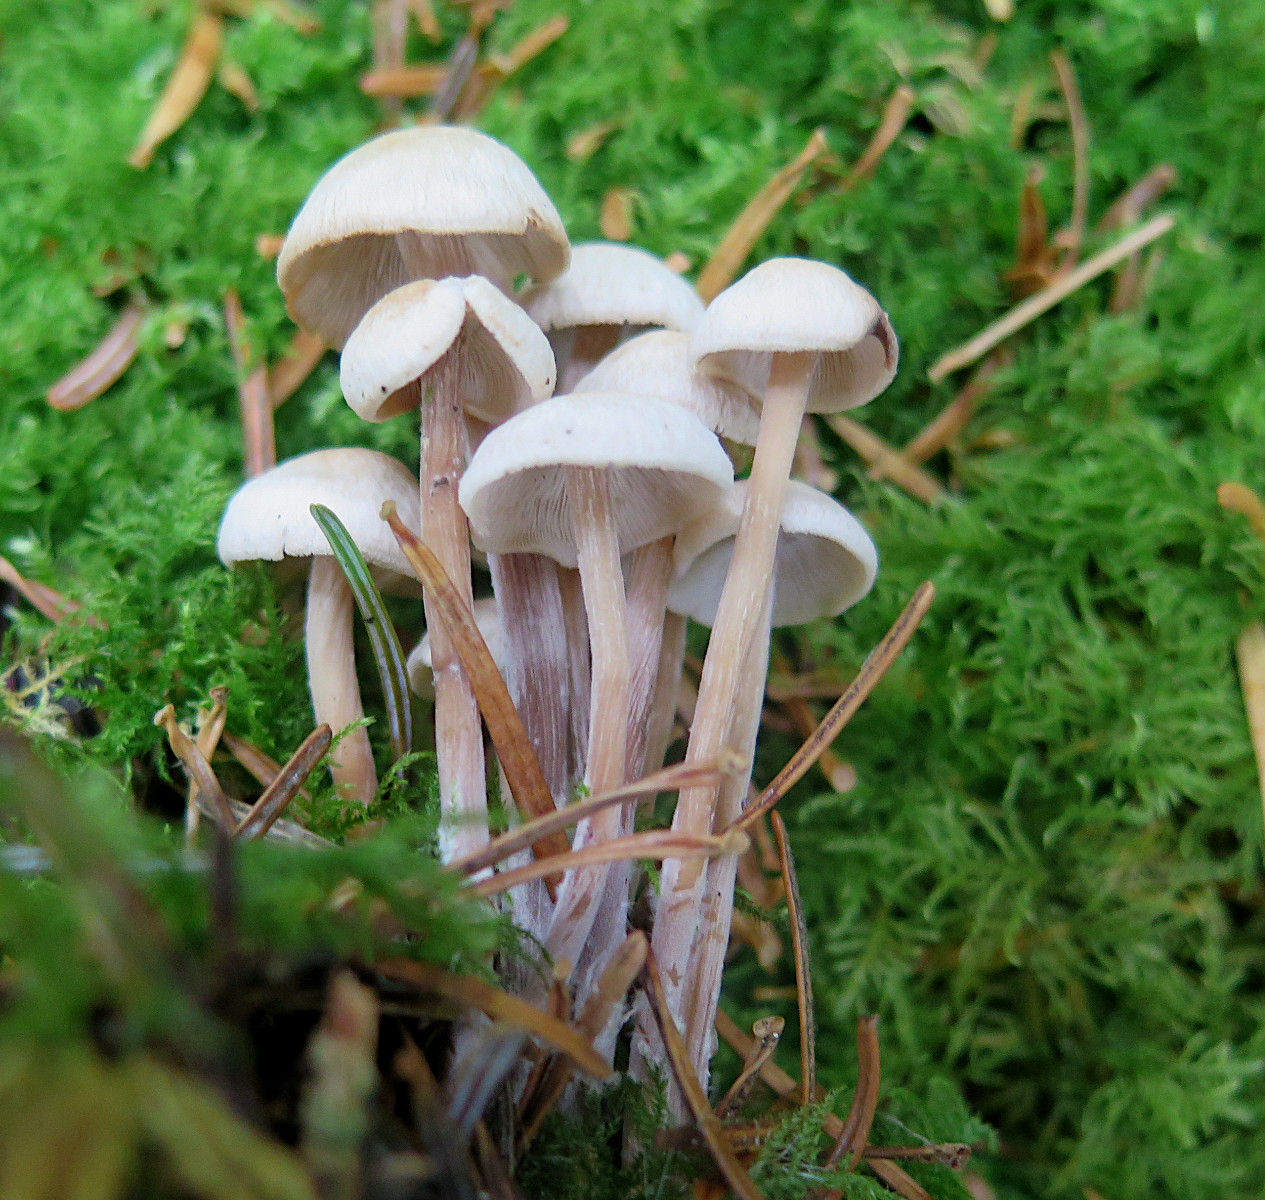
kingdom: Fungi
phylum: Basidiomycota
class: Agaricomycetes
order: Agaricales
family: Omphalotaceae
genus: Collybiopsis
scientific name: Collybiopsis confluens
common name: knippe-fladhat
